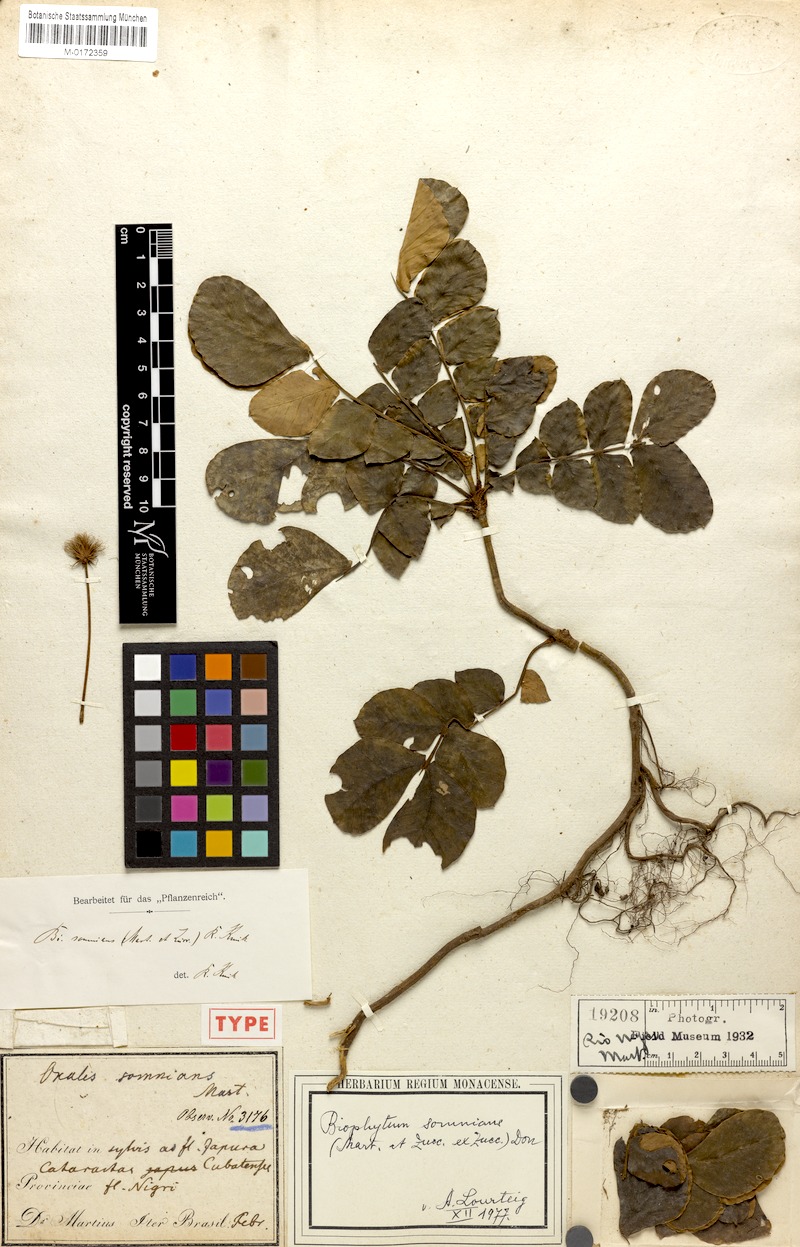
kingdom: Plantae
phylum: Tracheophyta
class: Magnoliopsida
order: Oxalidales
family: Oxalidaceae
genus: Biophytum
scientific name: Biophytum somnians
